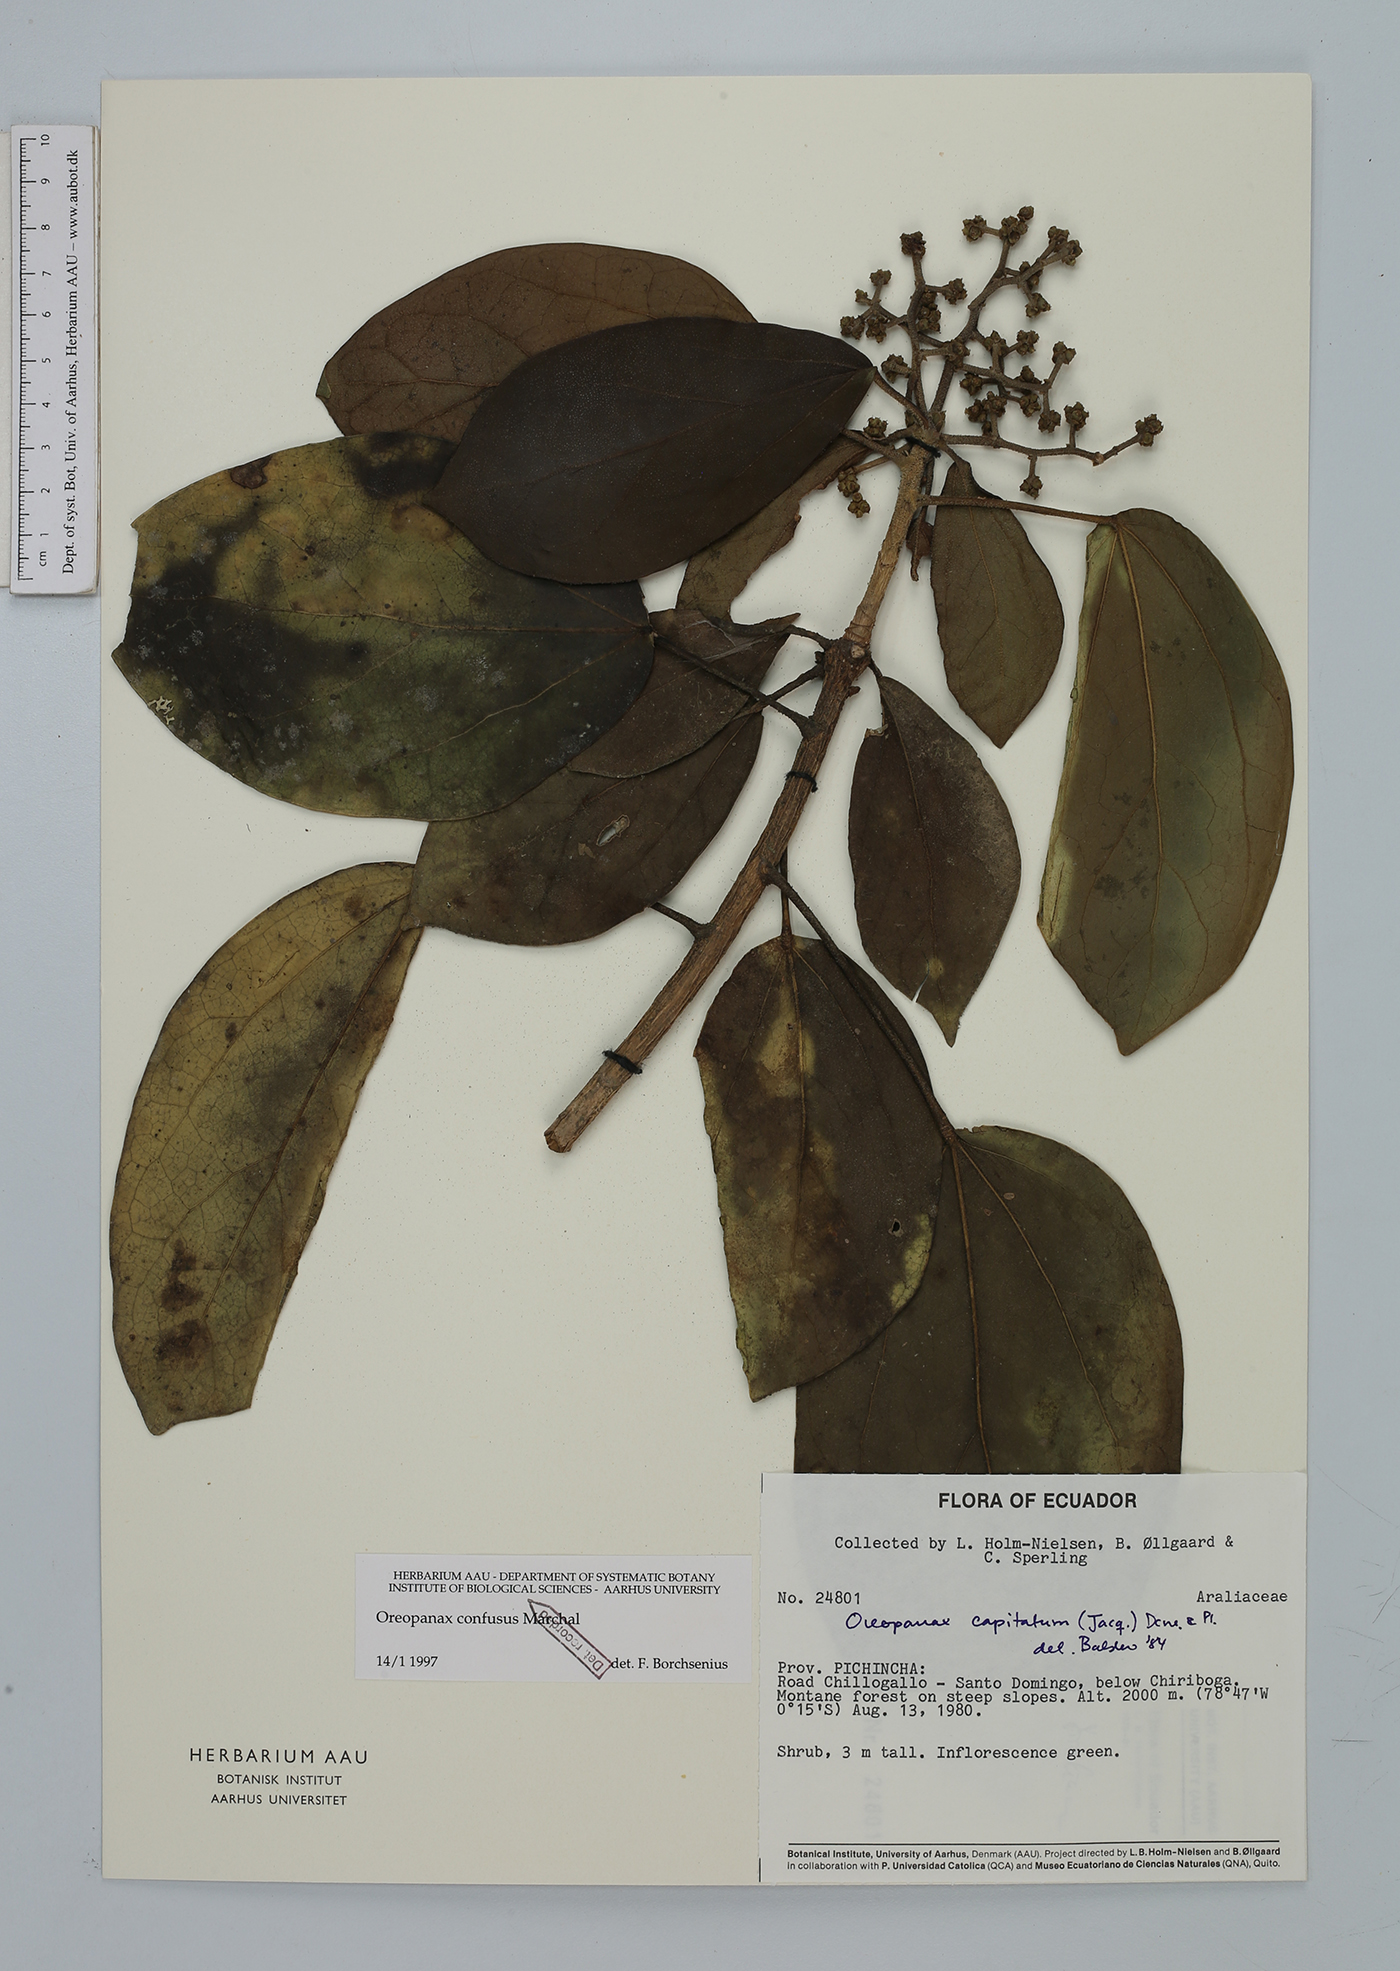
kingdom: Plantae
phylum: Tracheophyta
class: Magnoliopsida
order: Apiales
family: Araliaceae
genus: Oreopanax
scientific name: Oreopanax confusus
